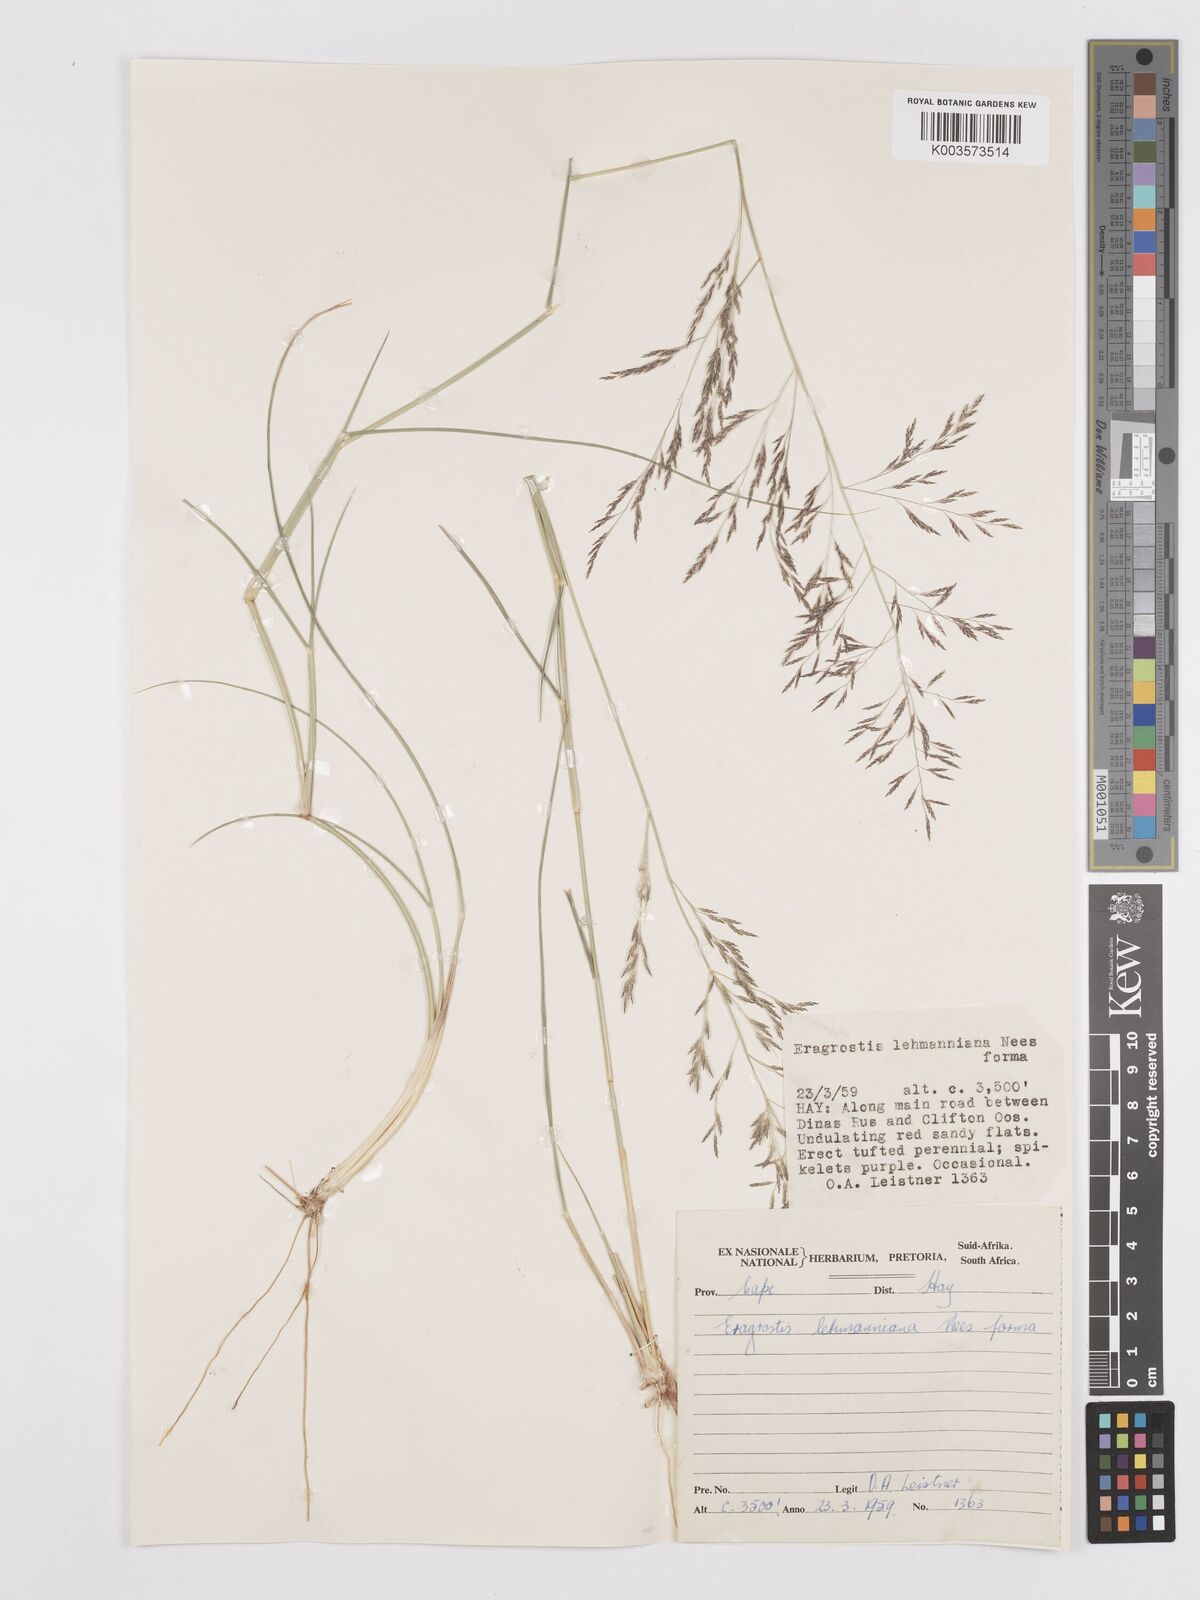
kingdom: Plantae
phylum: Tracheophyta
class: Liliopsida
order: Poales
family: Poaceae
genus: Eragrostis
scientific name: Eragrostis lehmanniana
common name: Lehmann lovegrass
